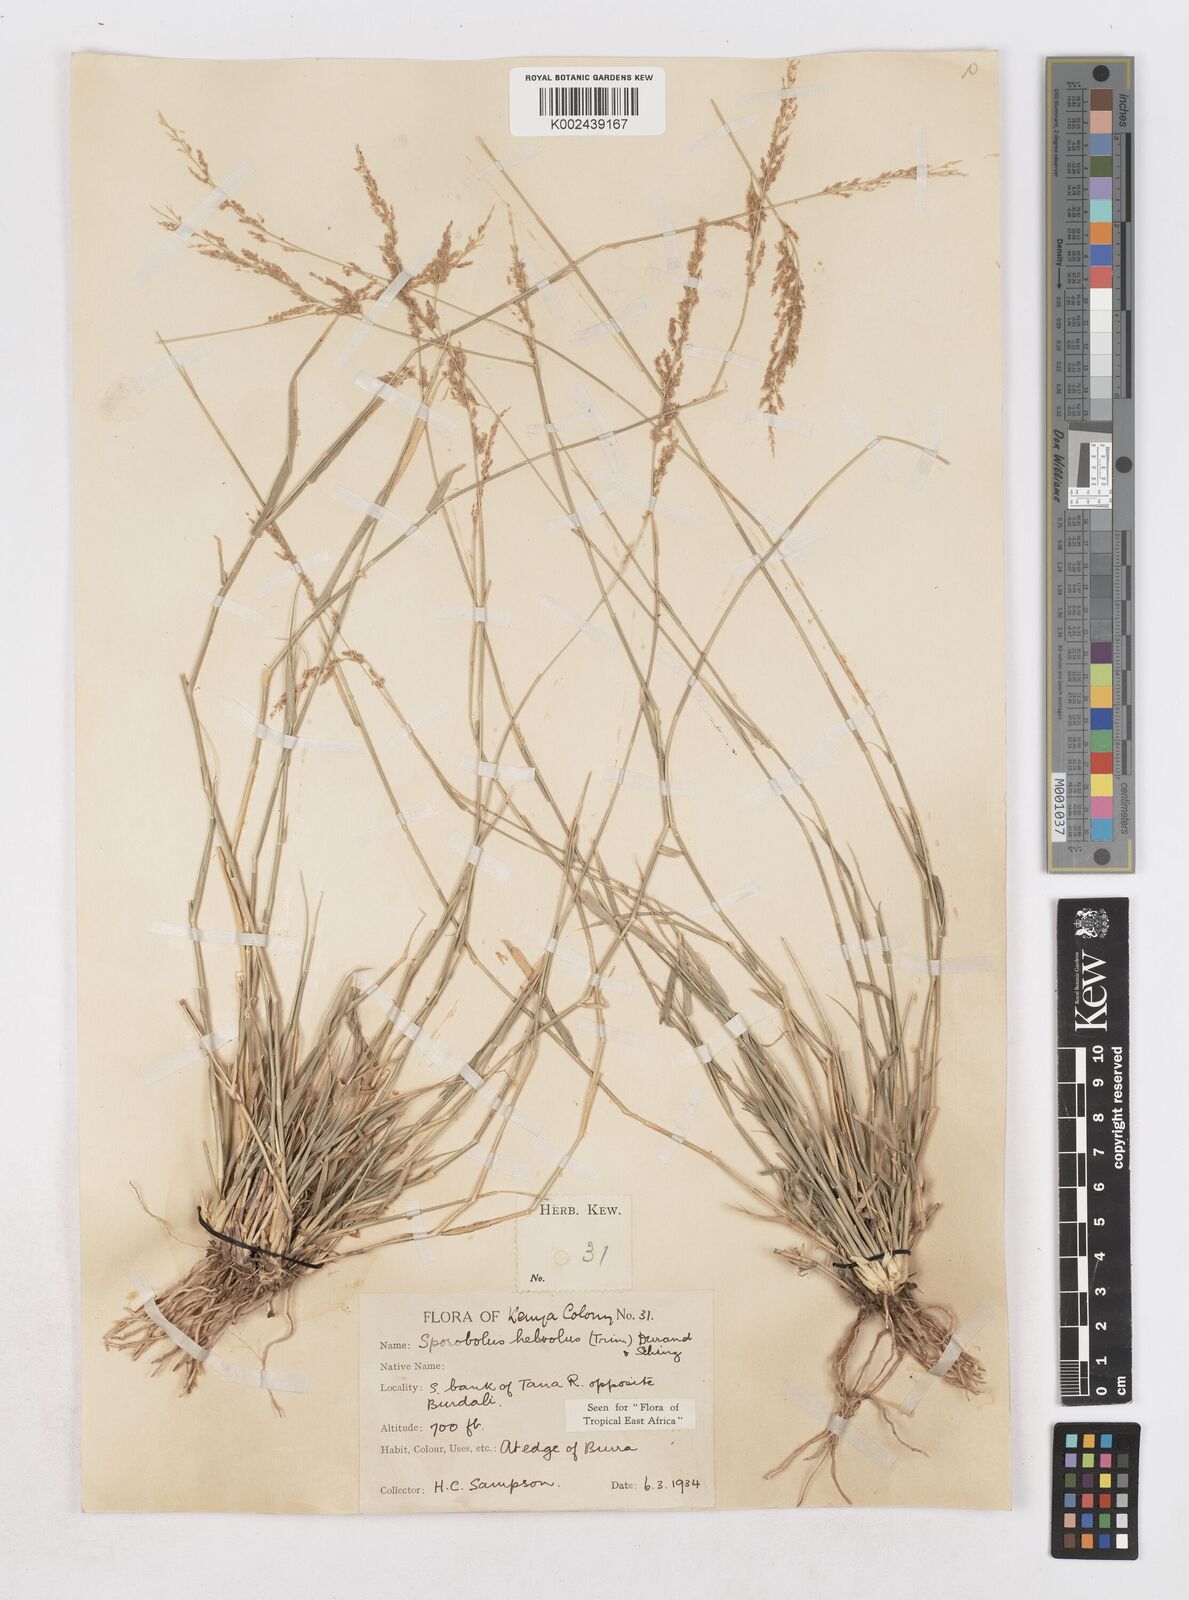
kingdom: Plantae
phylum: Tracheophyta
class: Liliopsida
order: Poales
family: Poaceae
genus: Sporobolus
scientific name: Sporobolus helvolus
